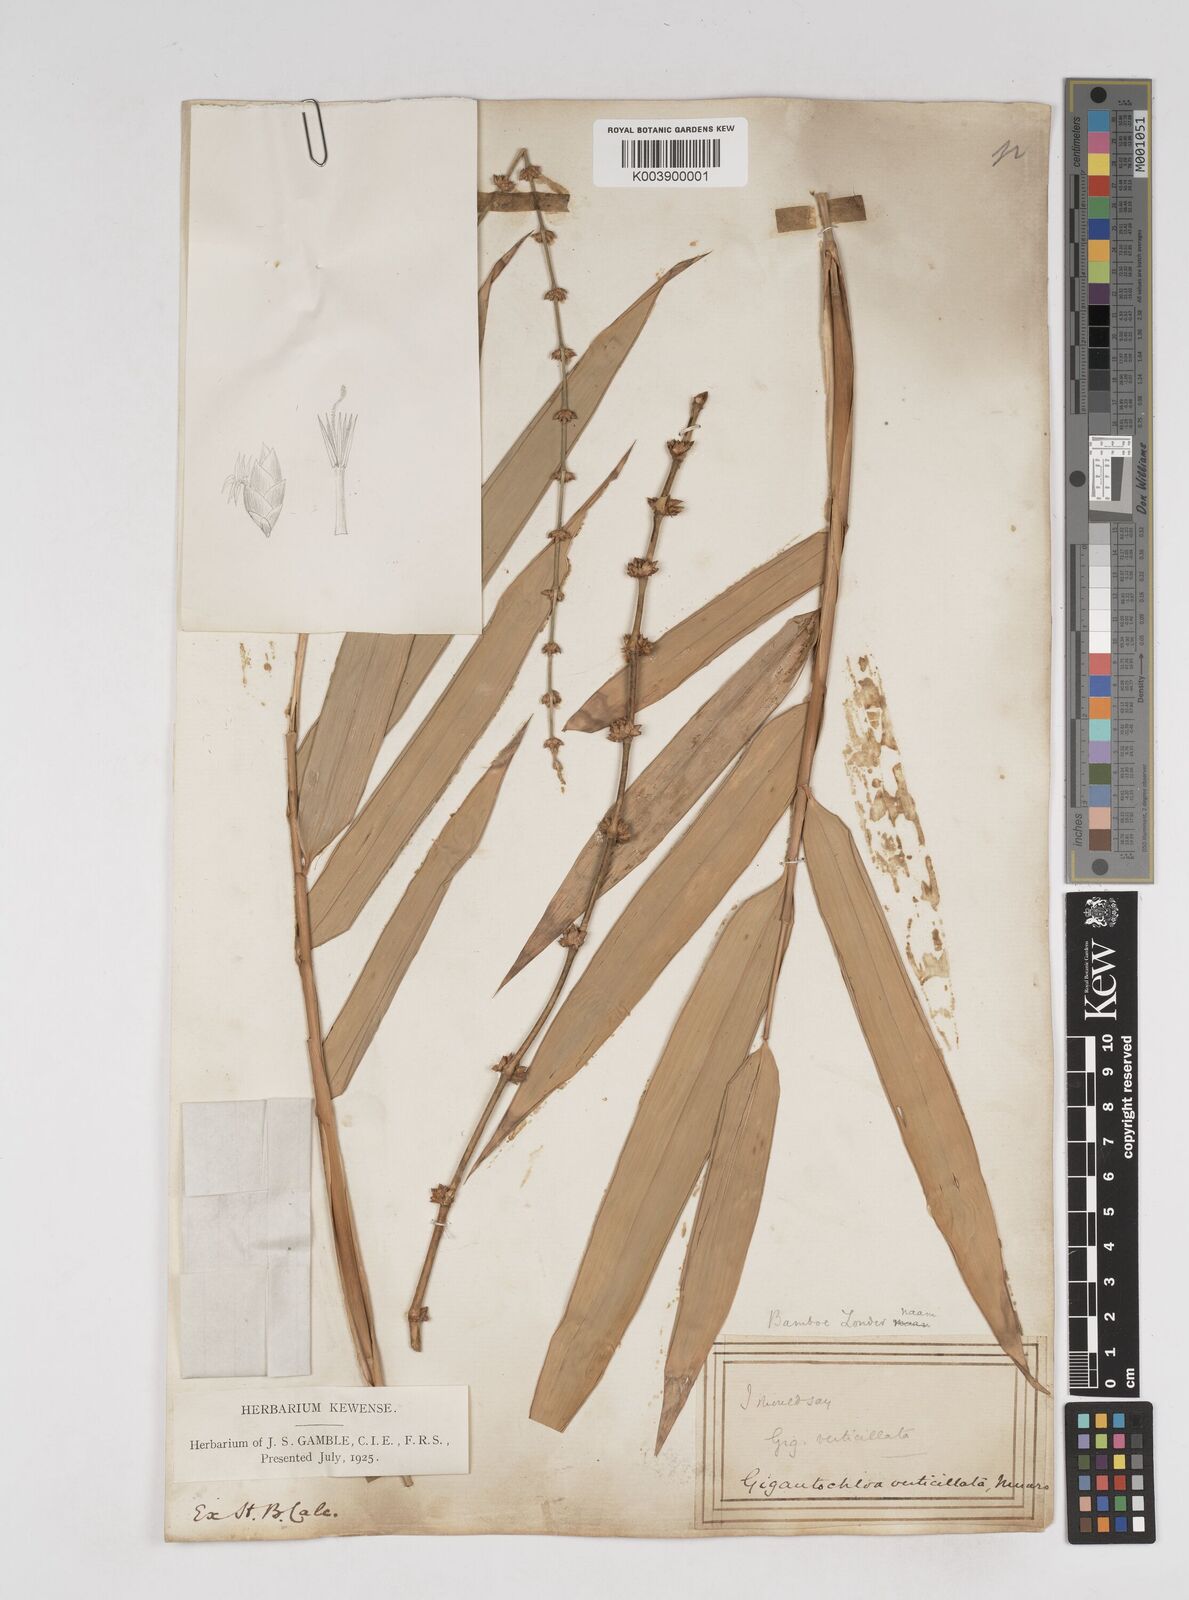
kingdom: Plantae
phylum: Tracheophyta
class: Liliopsida
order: Poales
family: Poaceae
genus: Gigantochloa
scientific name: Gigantochloa verticillata
